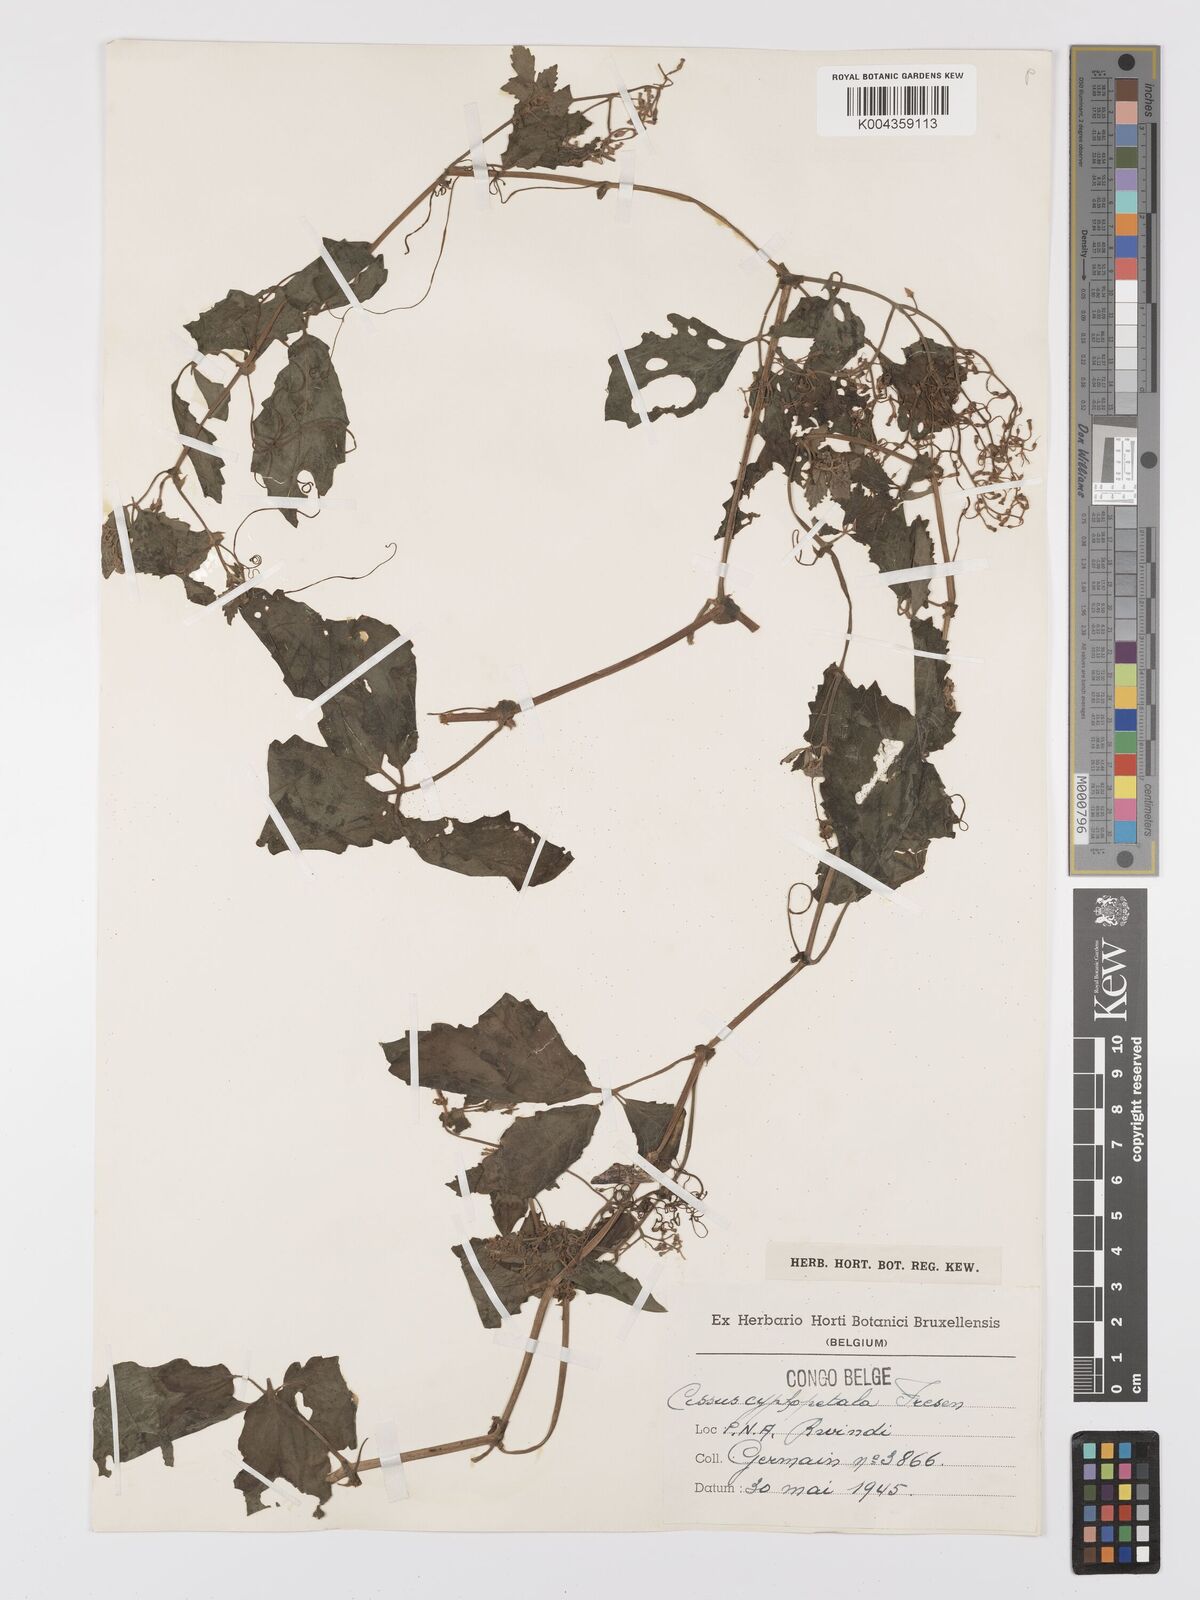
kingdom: Plantae
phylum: Tracheophyta
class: Magnoliopsida
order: Vitales
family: Vitaceae
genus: Cyphostemma
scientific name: Cyphostemma cyphopetalum
